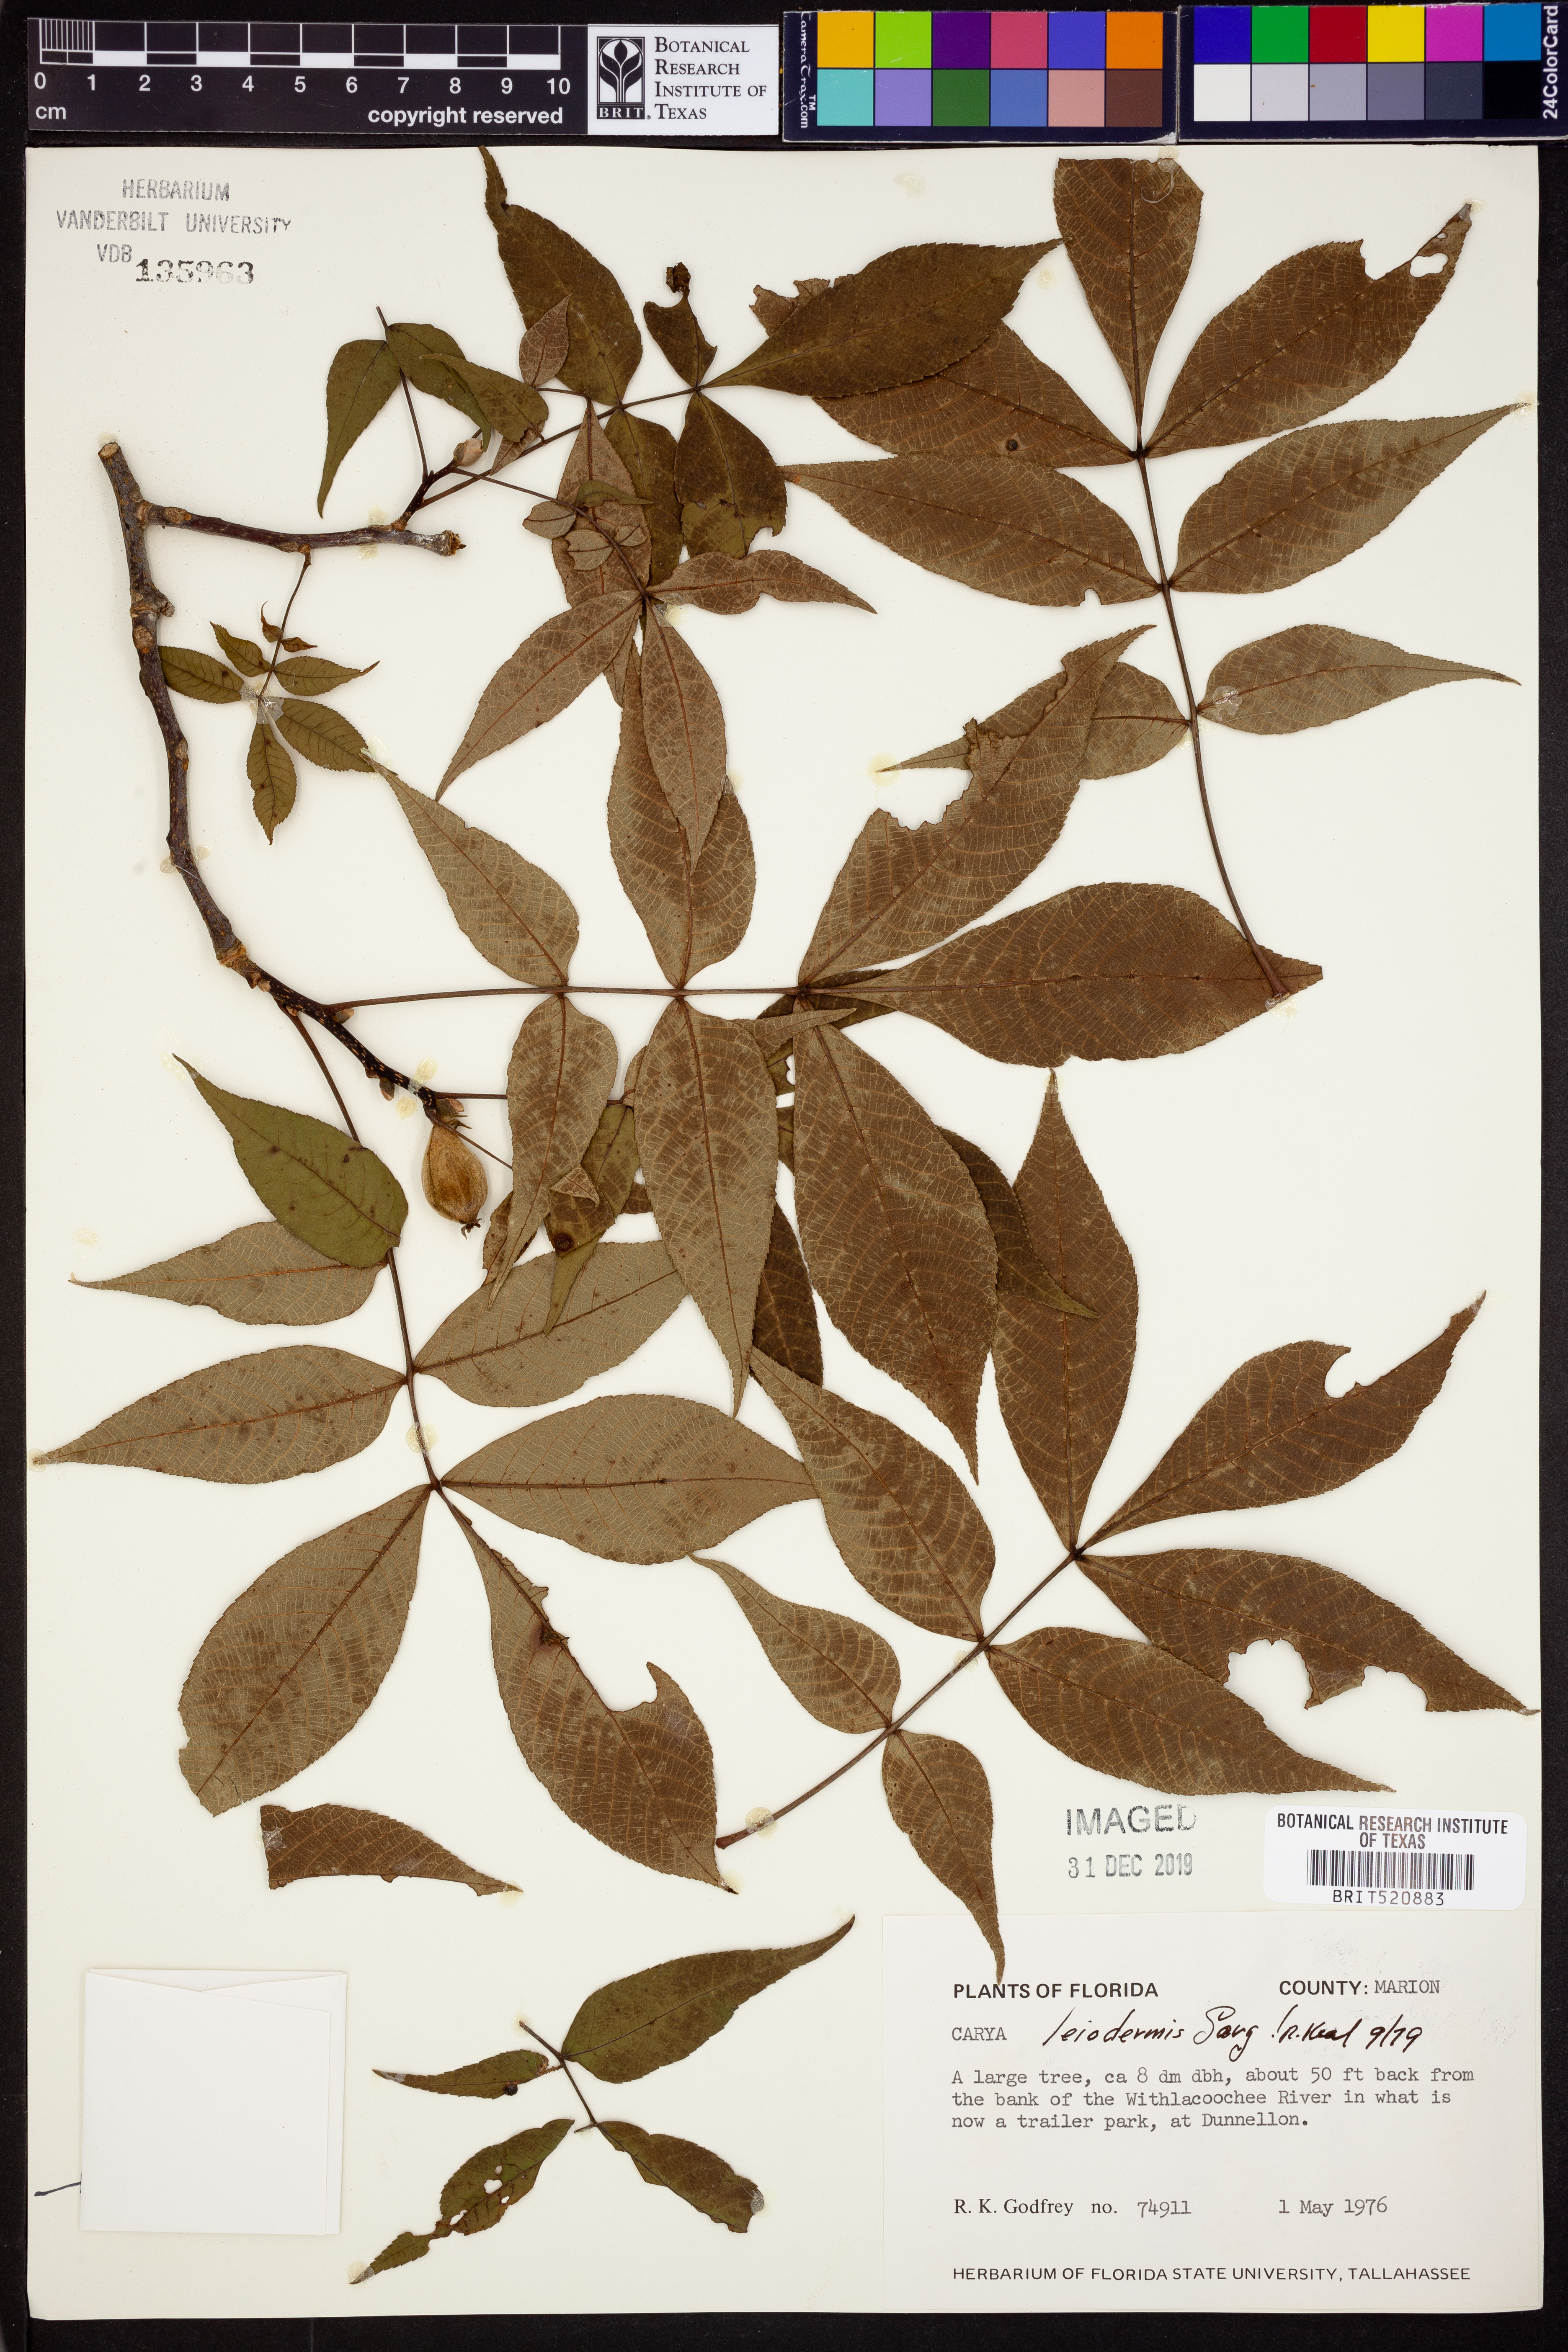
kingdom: Plantae
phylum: Tracheophyta
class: Magnoliopsida
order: Fagales
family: Juglandaceae
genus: Carya
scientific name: Carya glabra
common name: Pignut hickory
